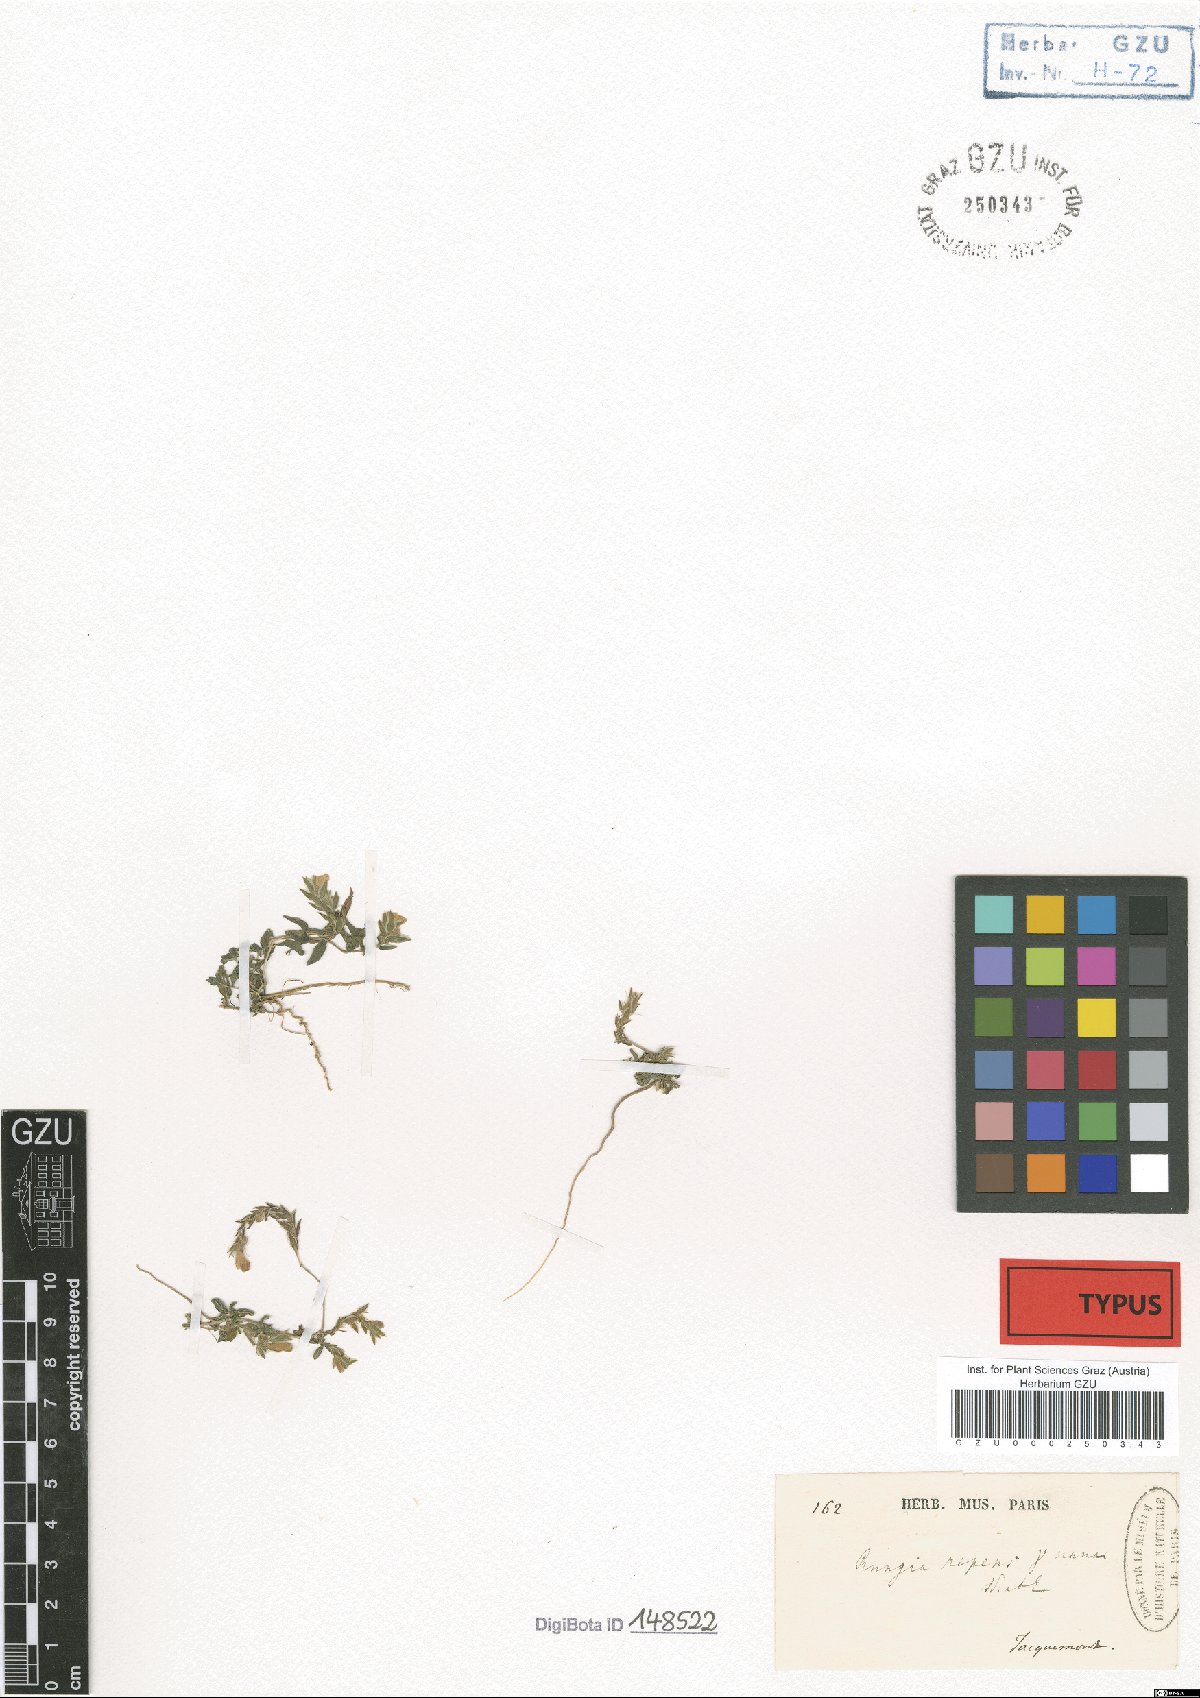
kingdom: Plantae
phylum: Tracheophyta
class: Magnoliopsida
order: Lamiales
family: Acanthaceae
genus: Rungia
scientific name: Rungia repens
